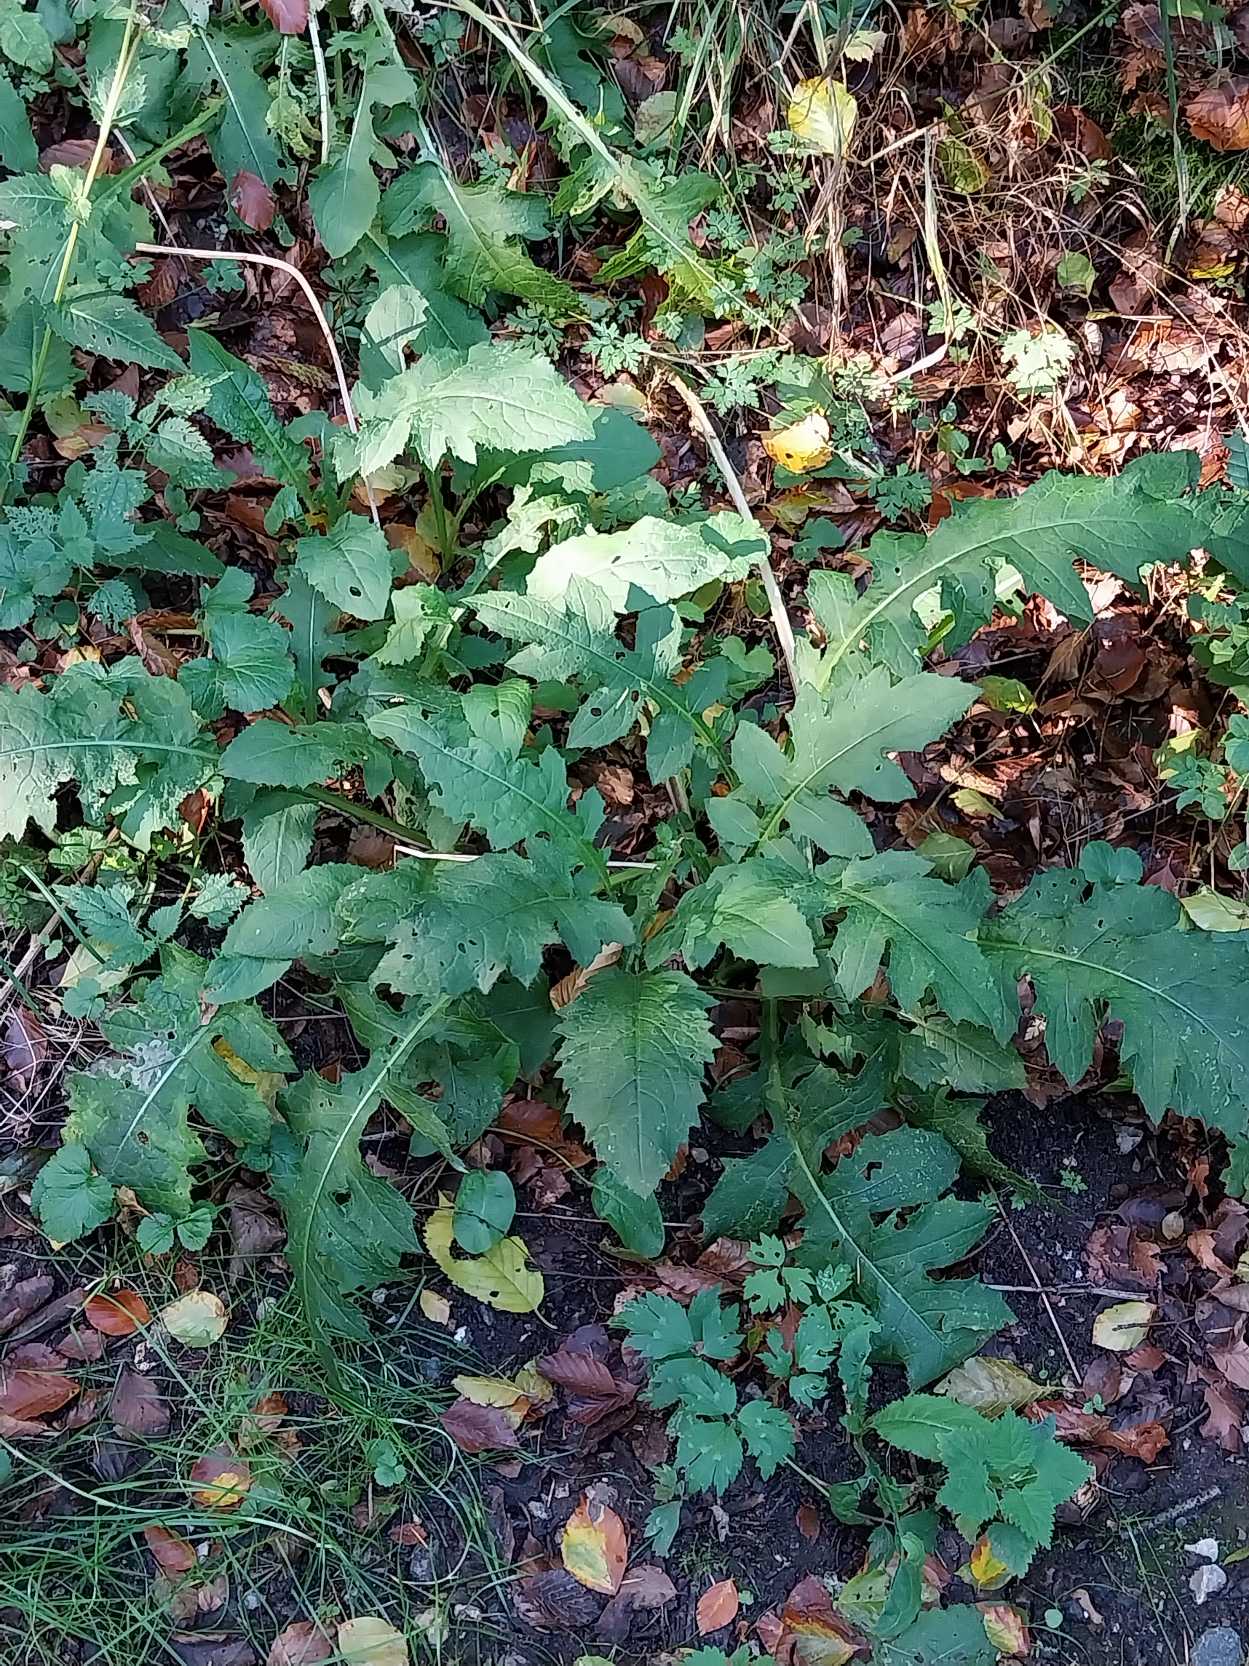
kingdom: Plantae
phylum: Tracheophyta
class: Magnoliopsida
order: Asterales
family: Asteraceae
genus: Cirsium
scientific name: Cirsium oleraceum
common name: Kål-tidsel
